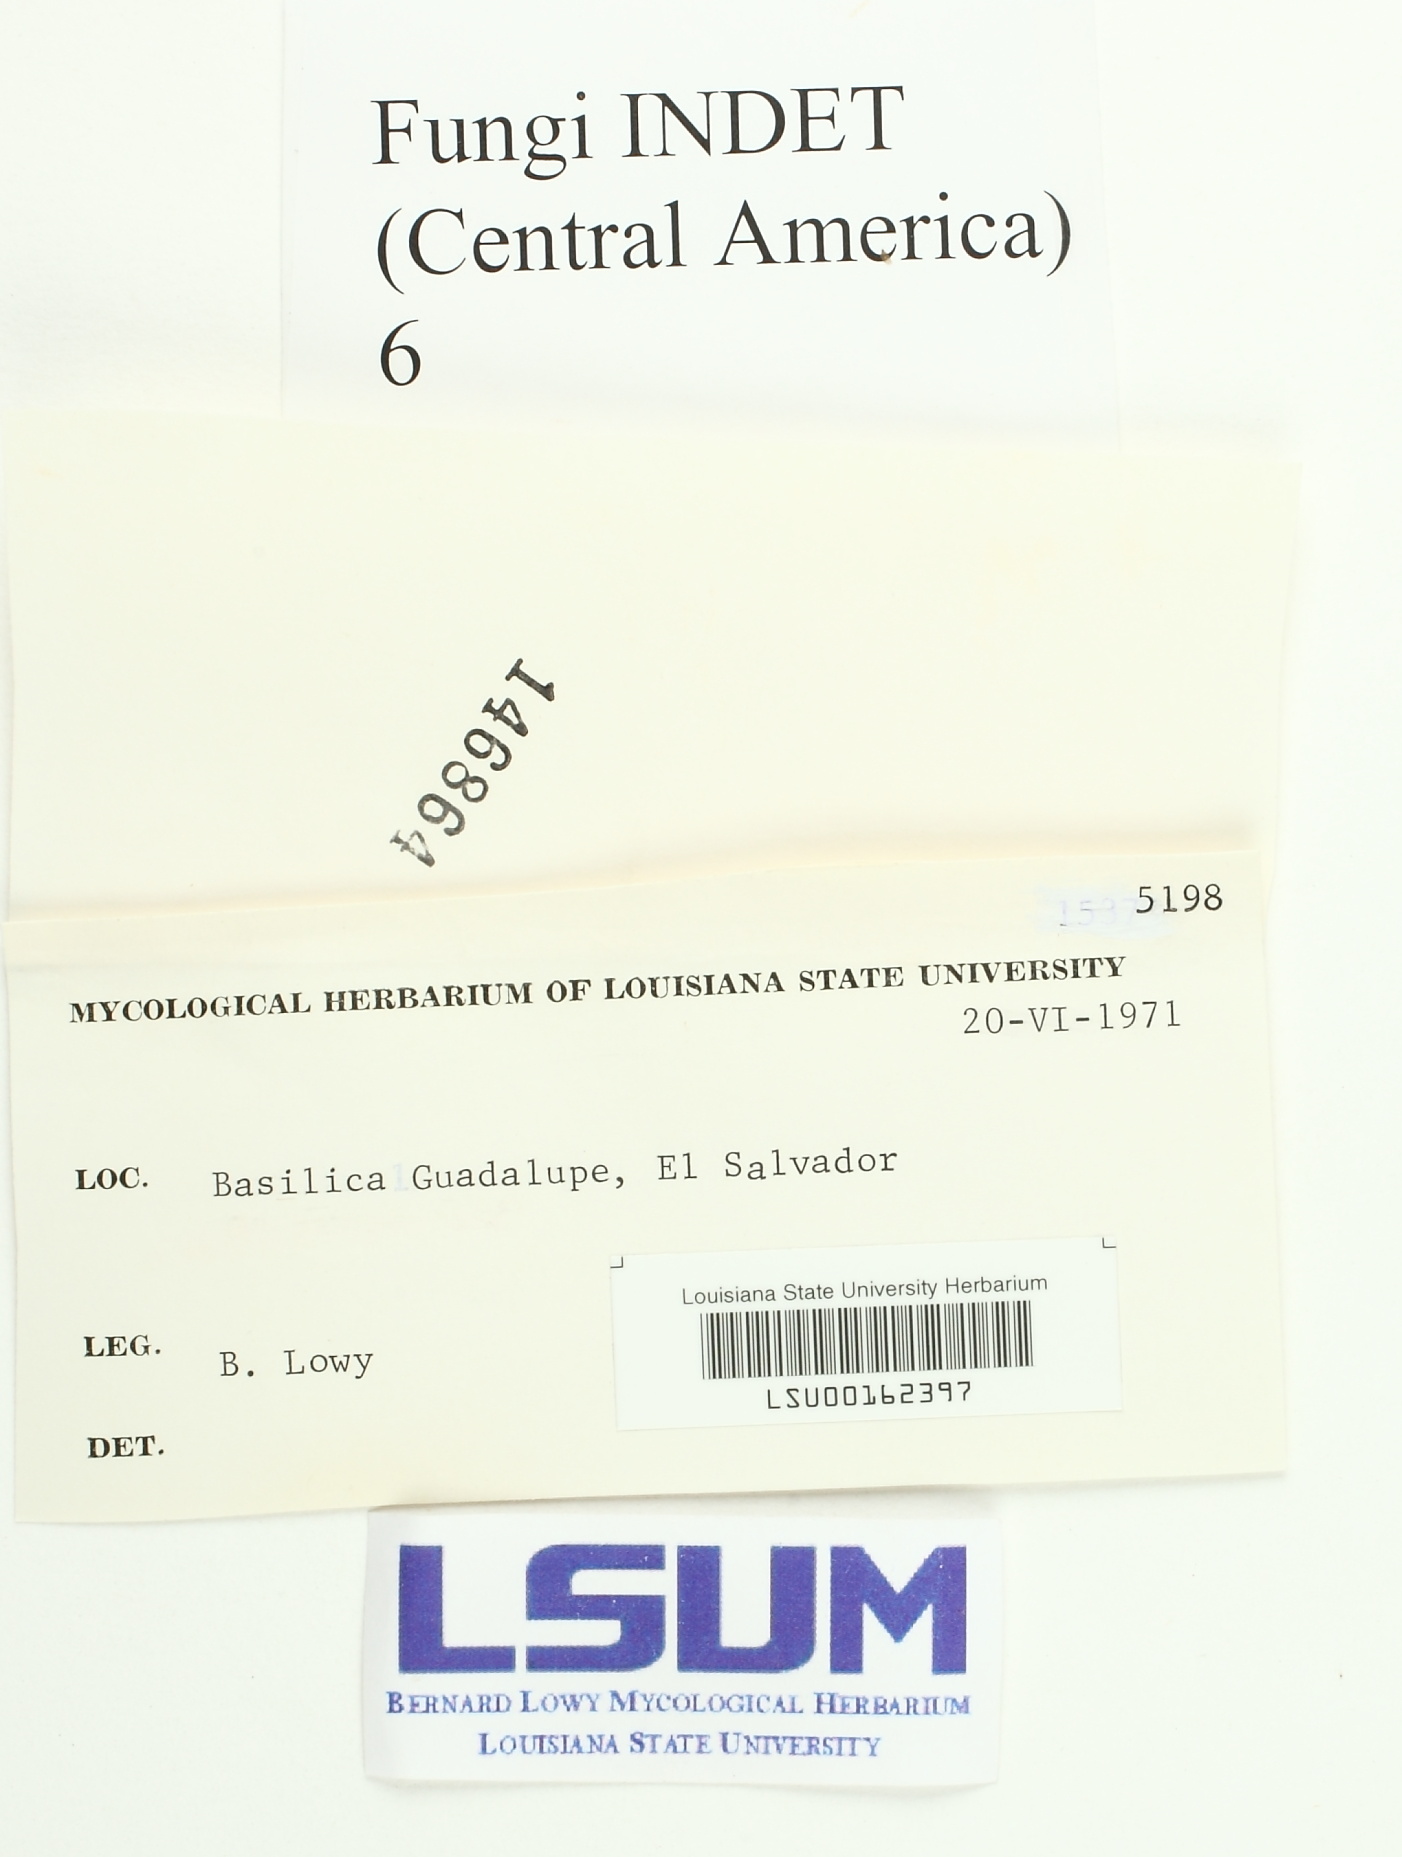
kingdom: Fungi
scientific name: Fungi
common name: Fungi
